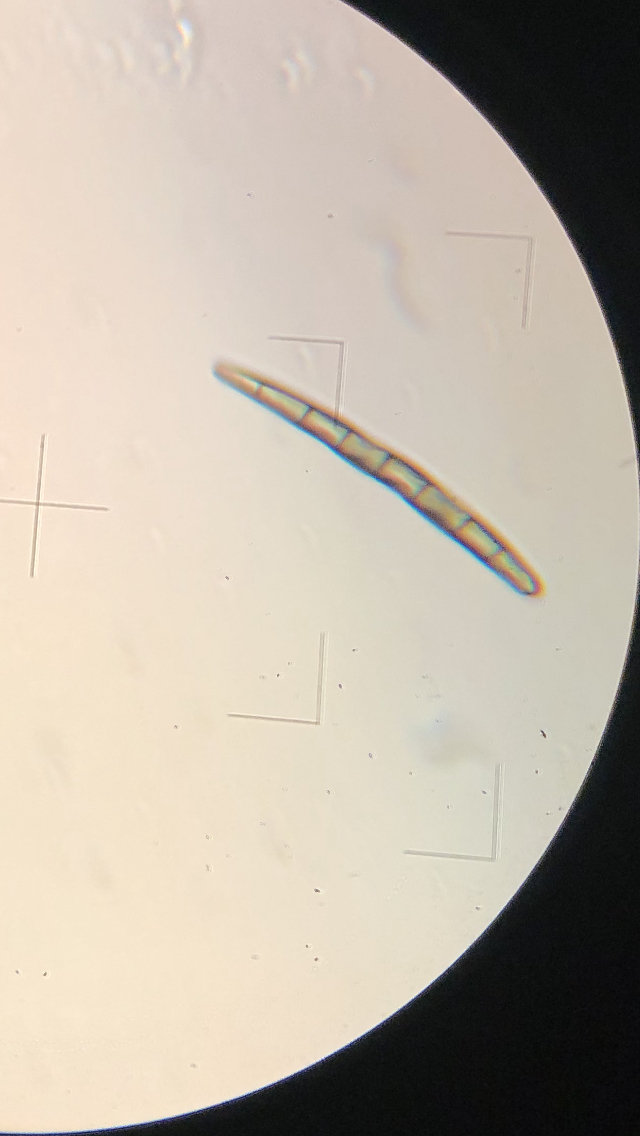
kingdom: Fungi
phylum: Ascomycota
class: Geoglossomycetes
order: Geoglossales
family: Geoglossaceae
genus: Geoglossum
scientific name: Geoglossum
